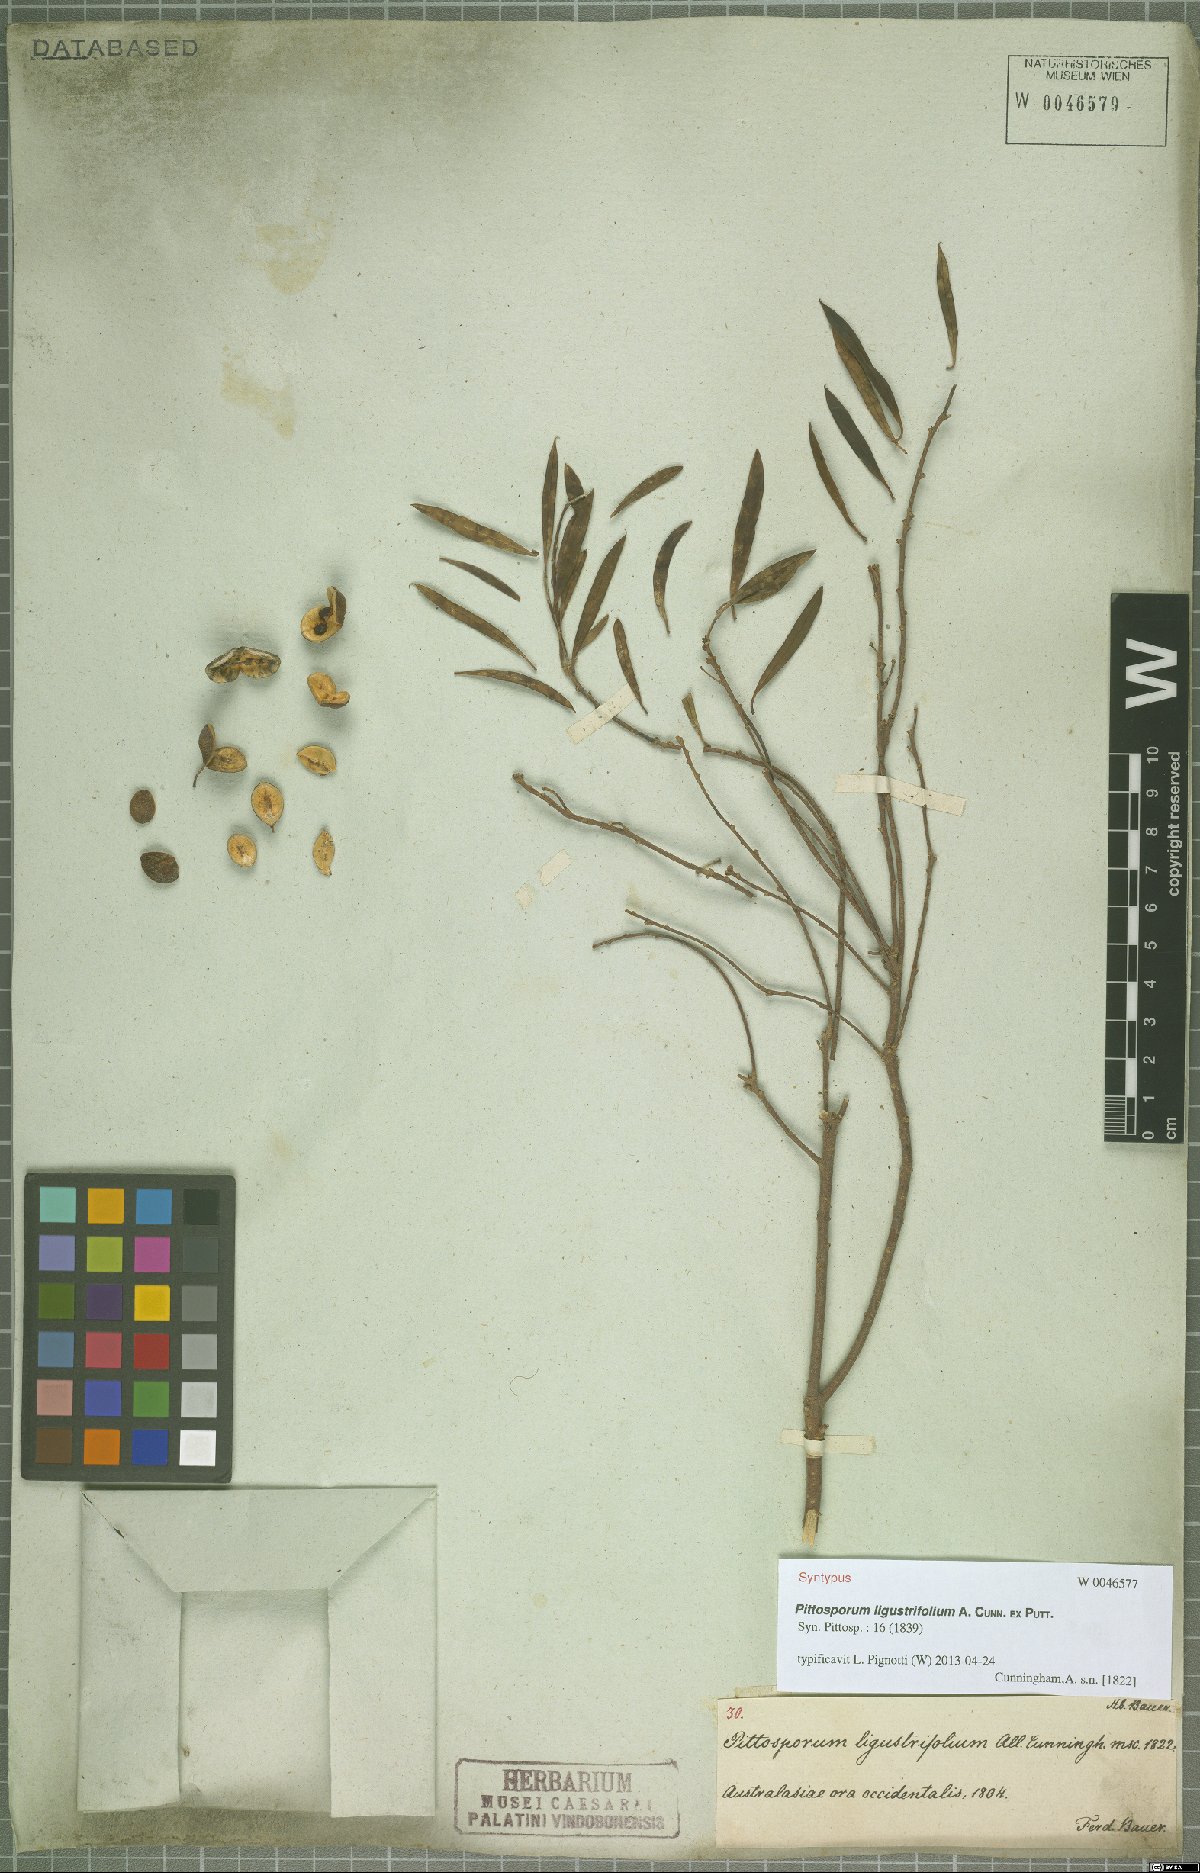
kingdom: Plantae
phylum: Tracheophyta
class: Magnoliopsida
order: Apiales
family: Pittosporaceae
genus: Pittosporum
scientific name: Pittosporum phillyraeoides
